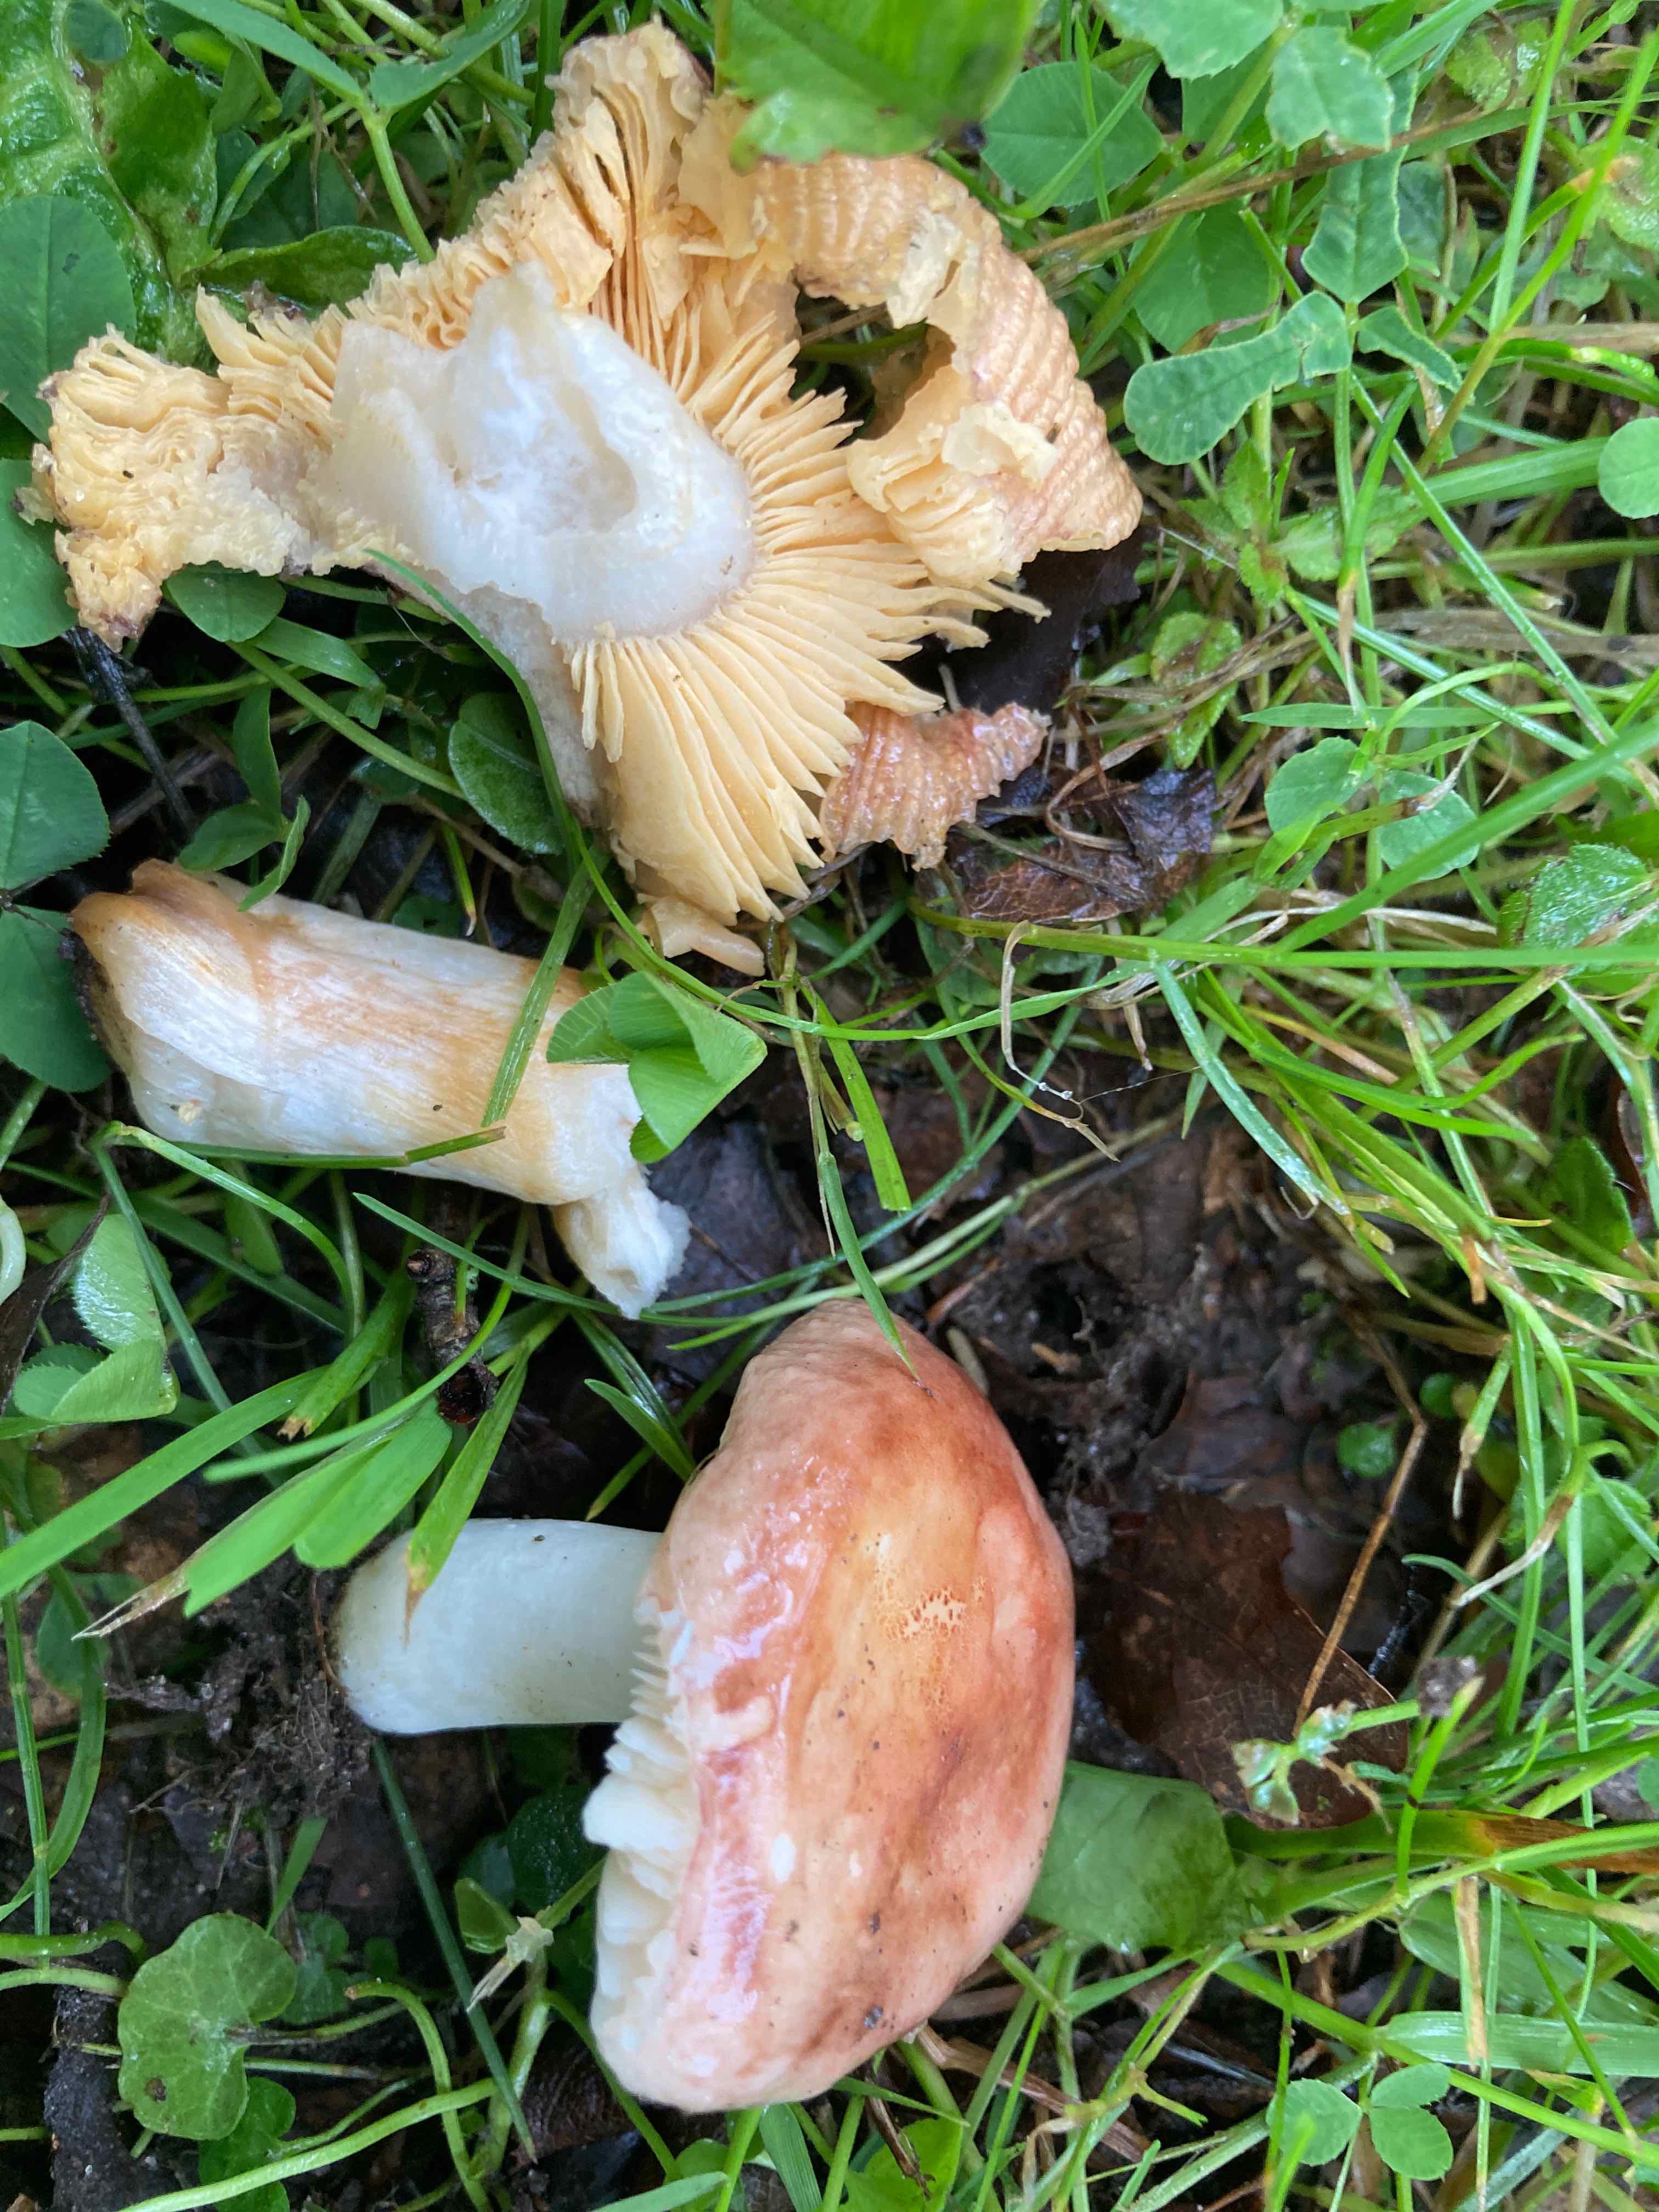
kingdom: Fungi
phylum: Basidiomycota
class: Agaricomycetes
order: Russulales
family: Russulaceae
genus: Russula
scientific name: Russula odorata
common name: duft-skørhat
